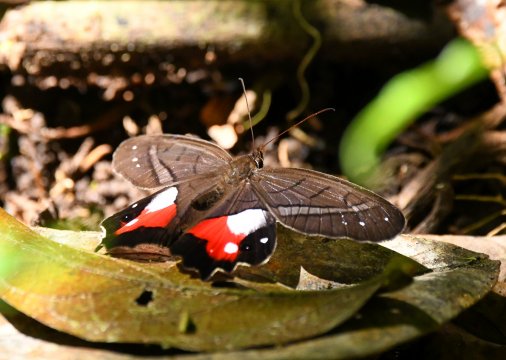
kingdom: Animalia
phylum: Arthropoda
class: Insecta
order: Lepidoptera
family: Nymphalidae
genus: Pierella
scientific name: Pierella helvina
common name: Red-washed Satyr
